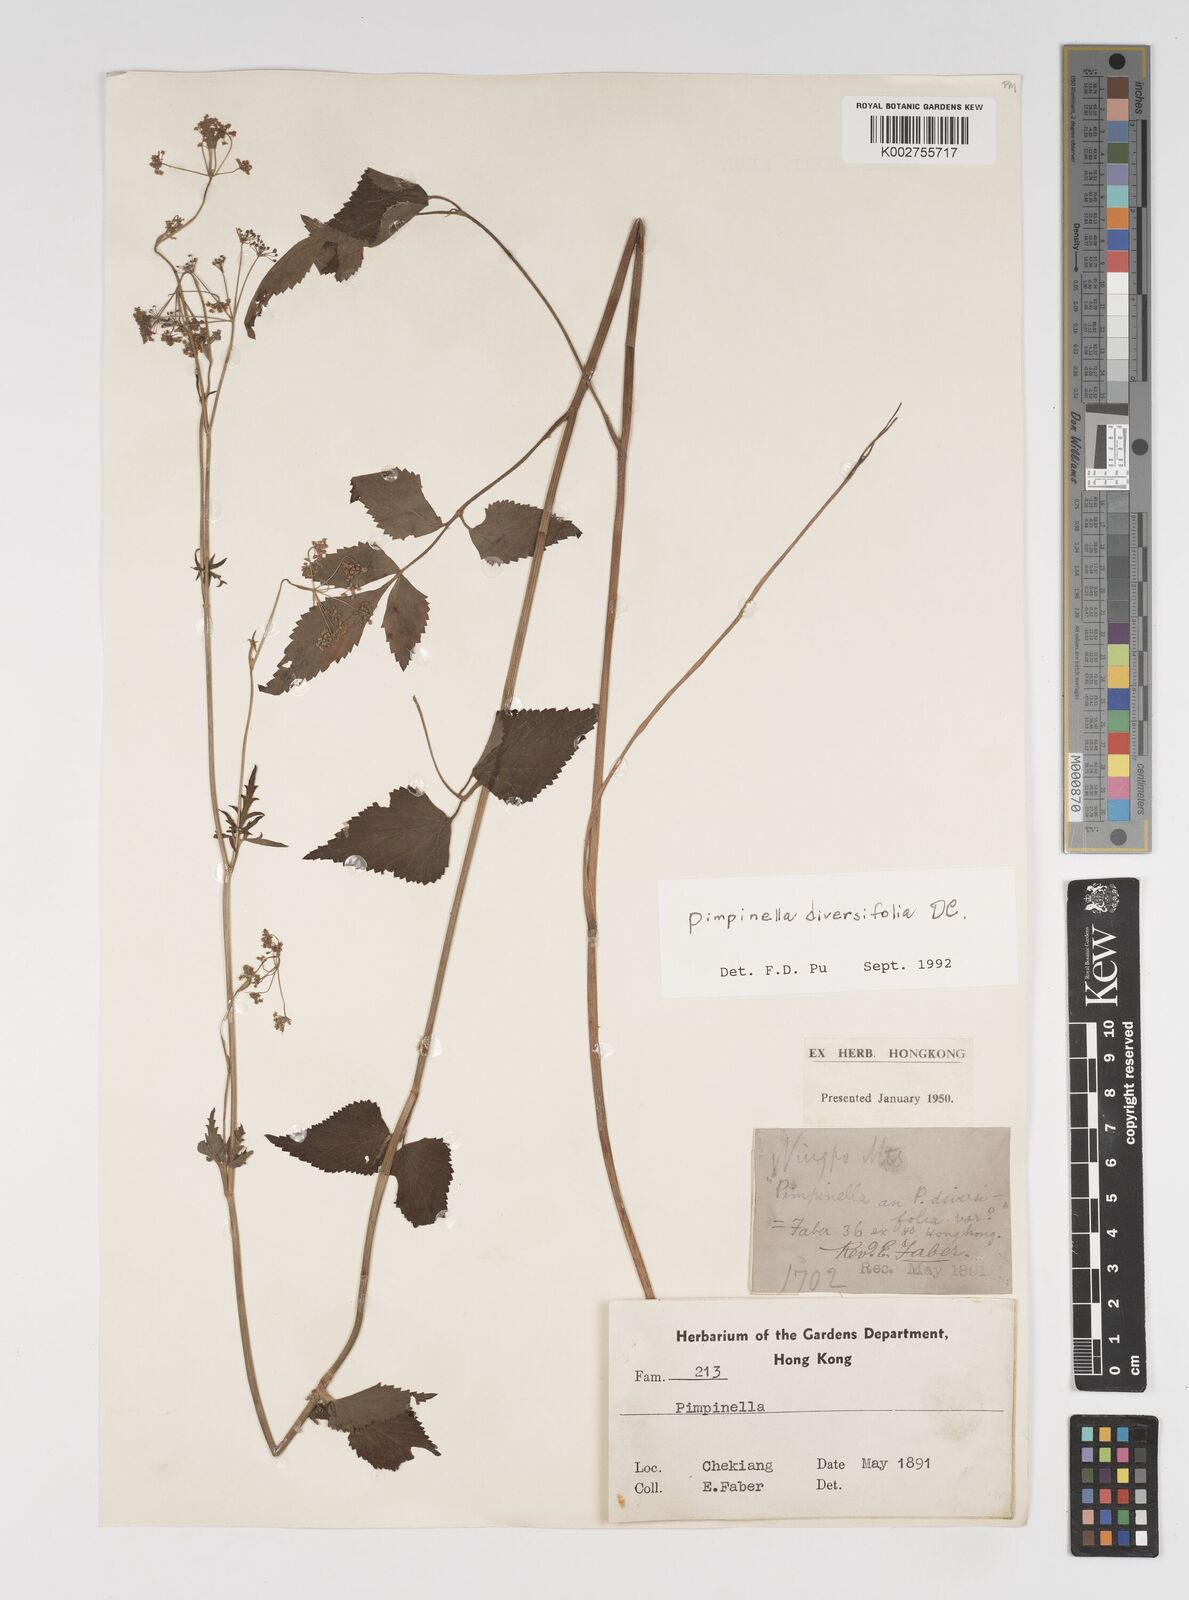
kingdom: Plantae
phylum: Tracheophyta
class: Magnoliopsida
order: Apiales
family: Apiaceae
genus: Pimpinella
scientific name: Pimpinella diversifolia
